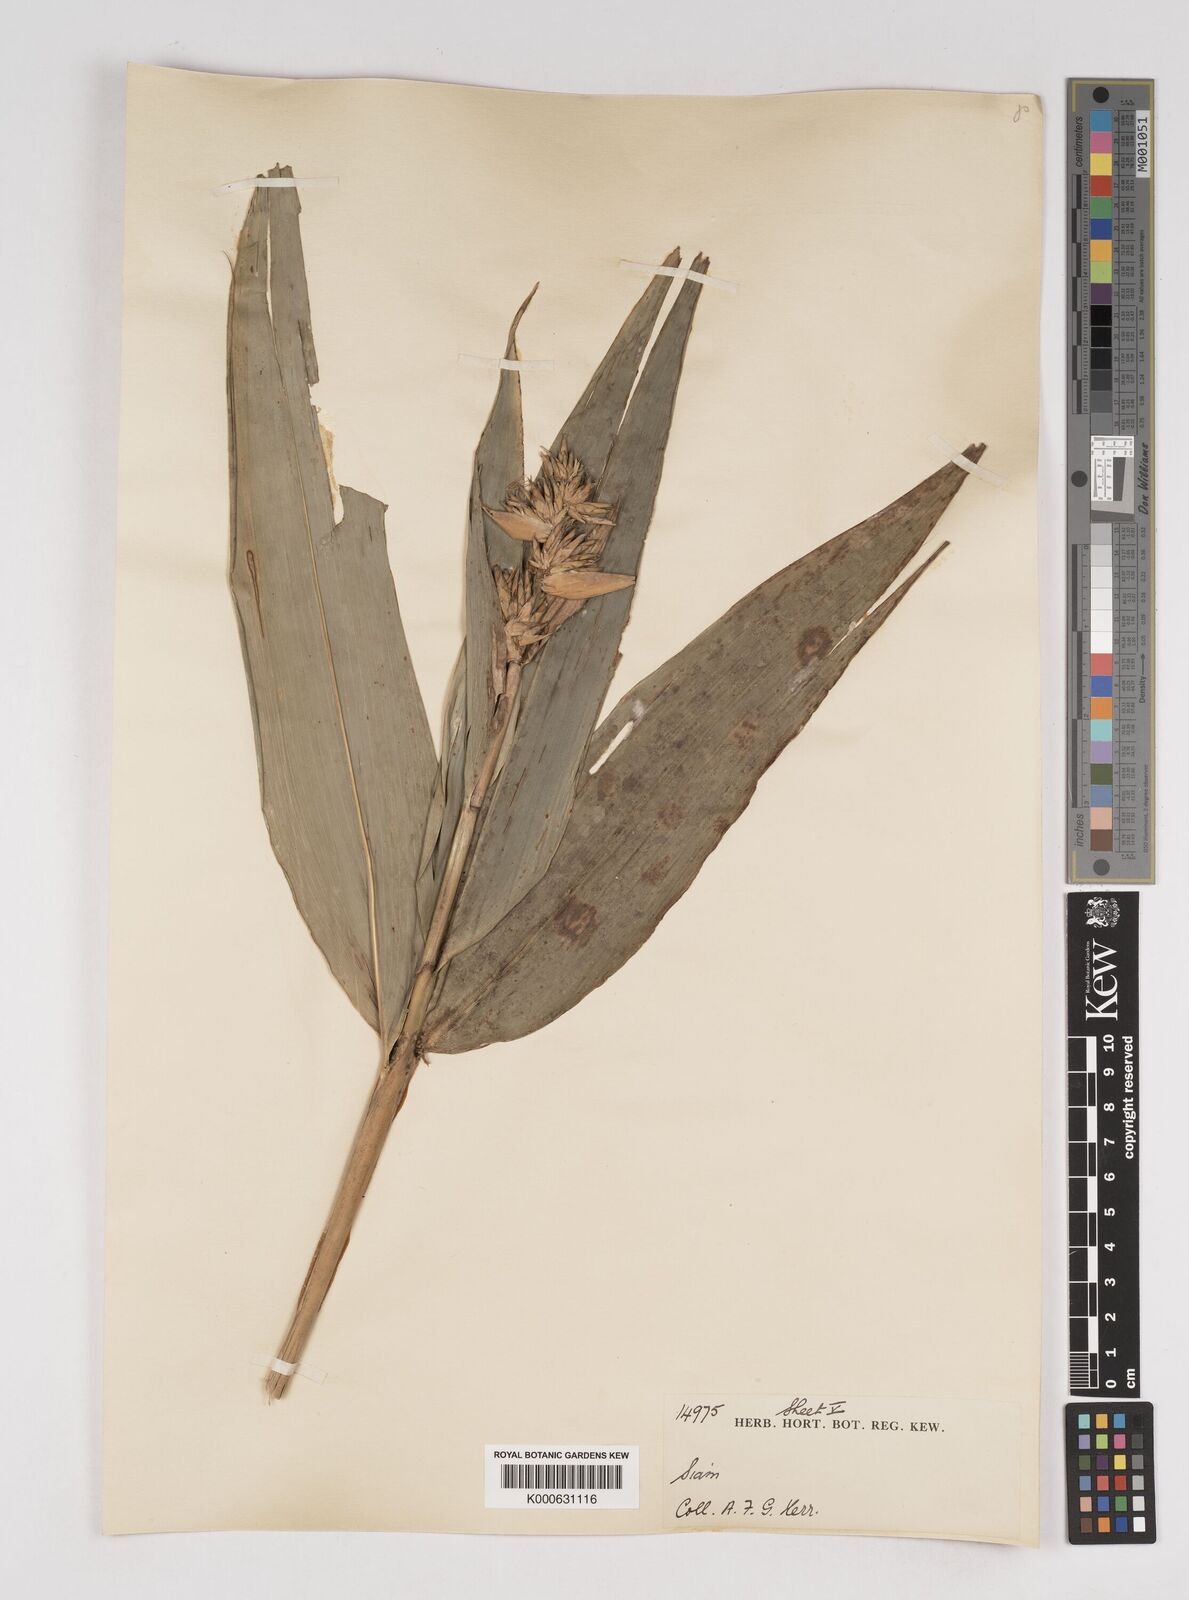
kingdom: Plantae
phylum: Tracheophyta
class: Liliopsida
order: Poales
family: Poaceae
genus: Gigantochloa
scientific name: Gigantochloa ligulata
